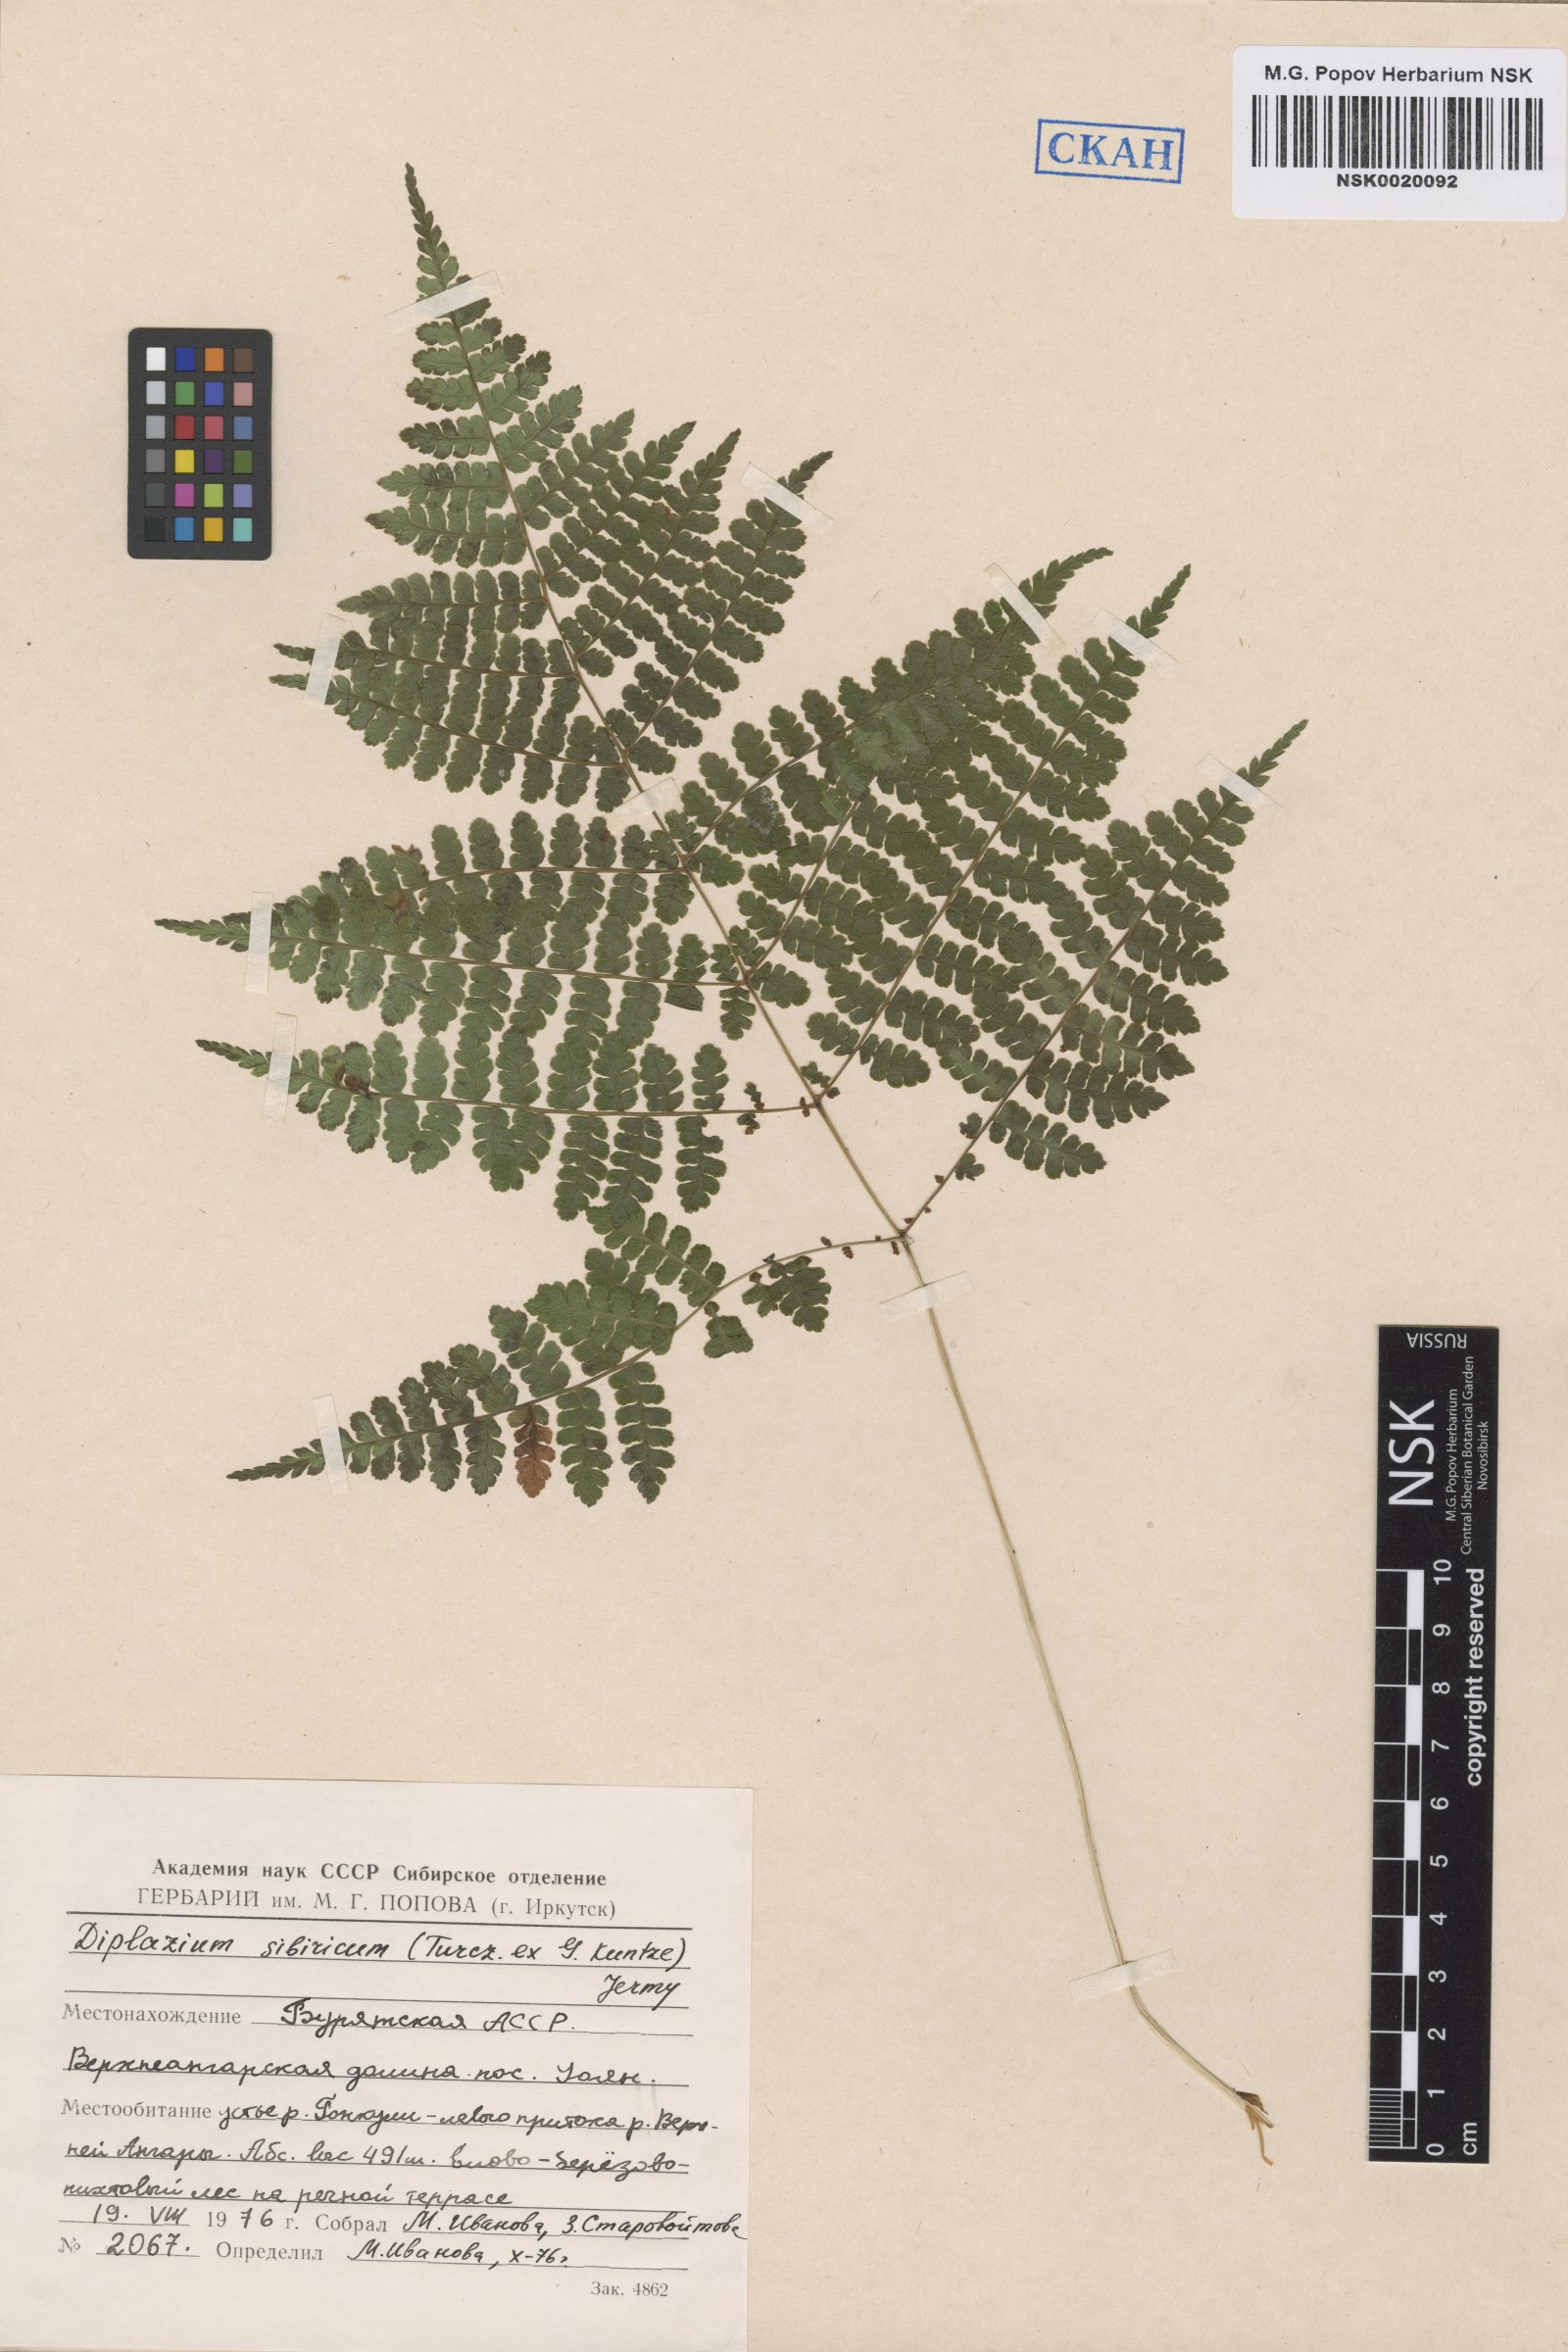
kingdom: Plantae
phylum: Tracheophyta
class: Polypodiopsida
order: Polypodiales
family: Athyriaceae
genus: Diplazium
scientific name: Diplazium sibiricum
